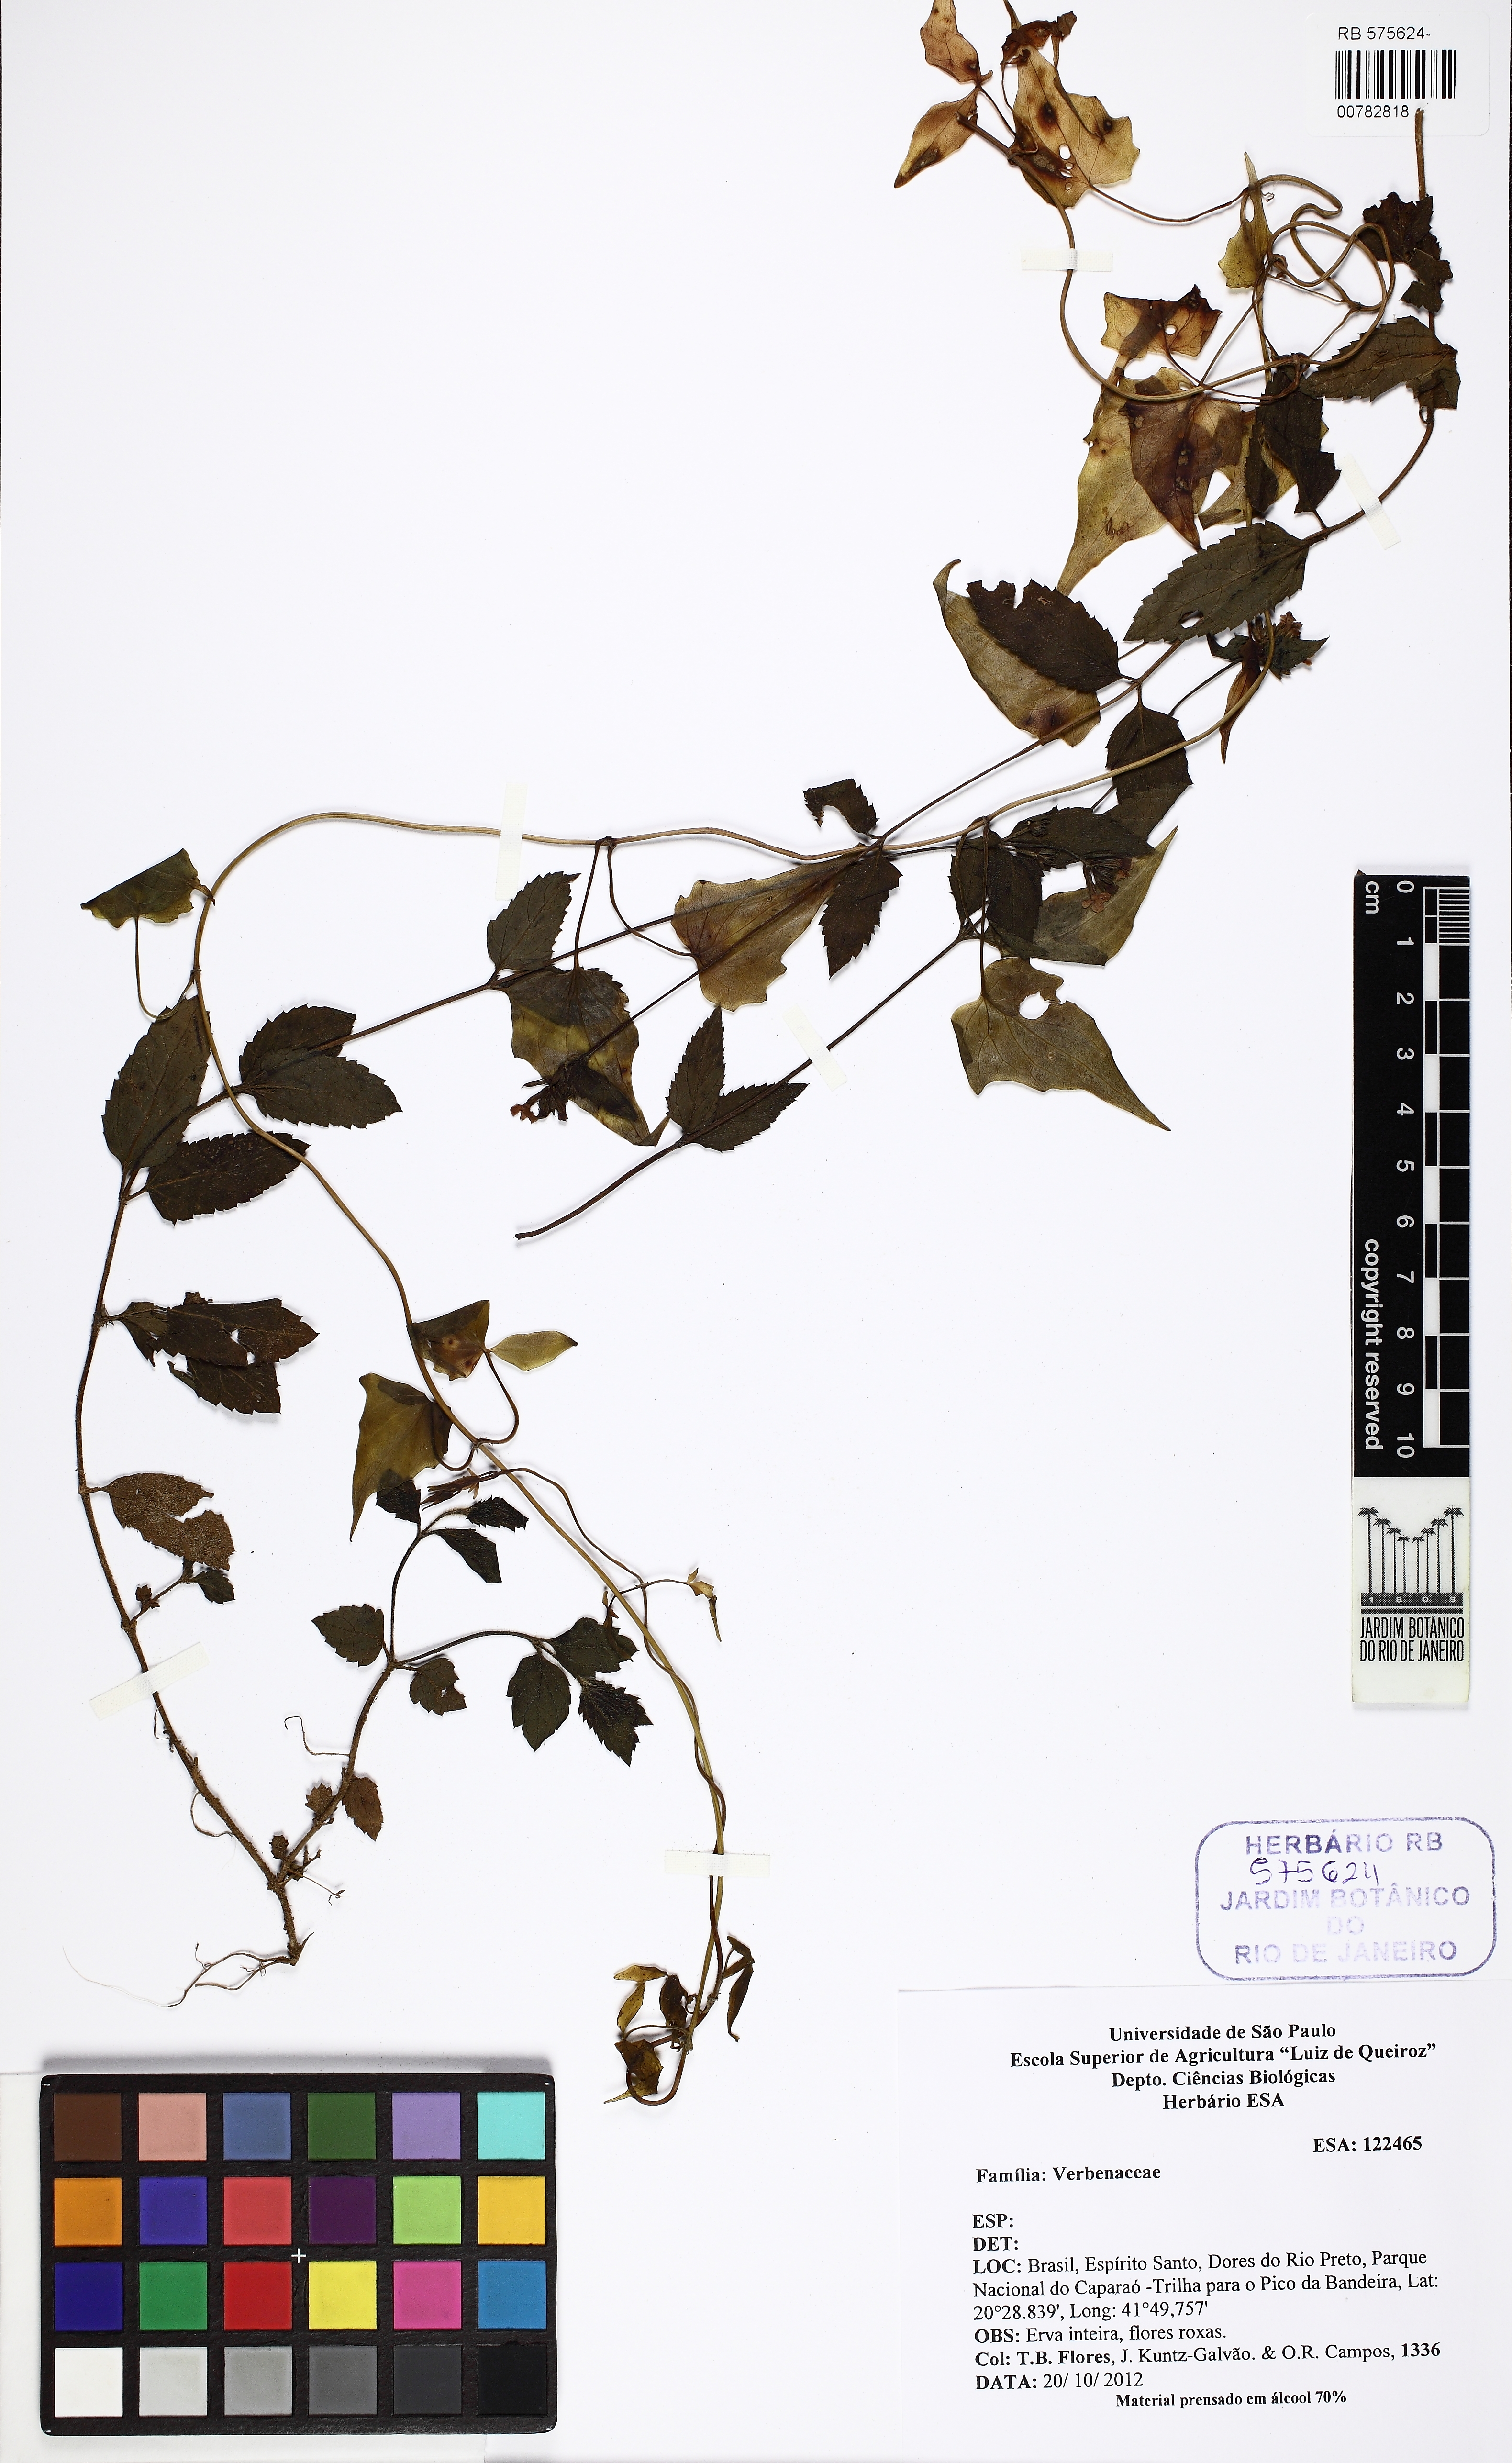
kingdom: Plantae
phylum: Tracheophyta
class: Magnoliopsida
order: Lamiales
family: Verbenaceae
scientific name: Verbenaceae
